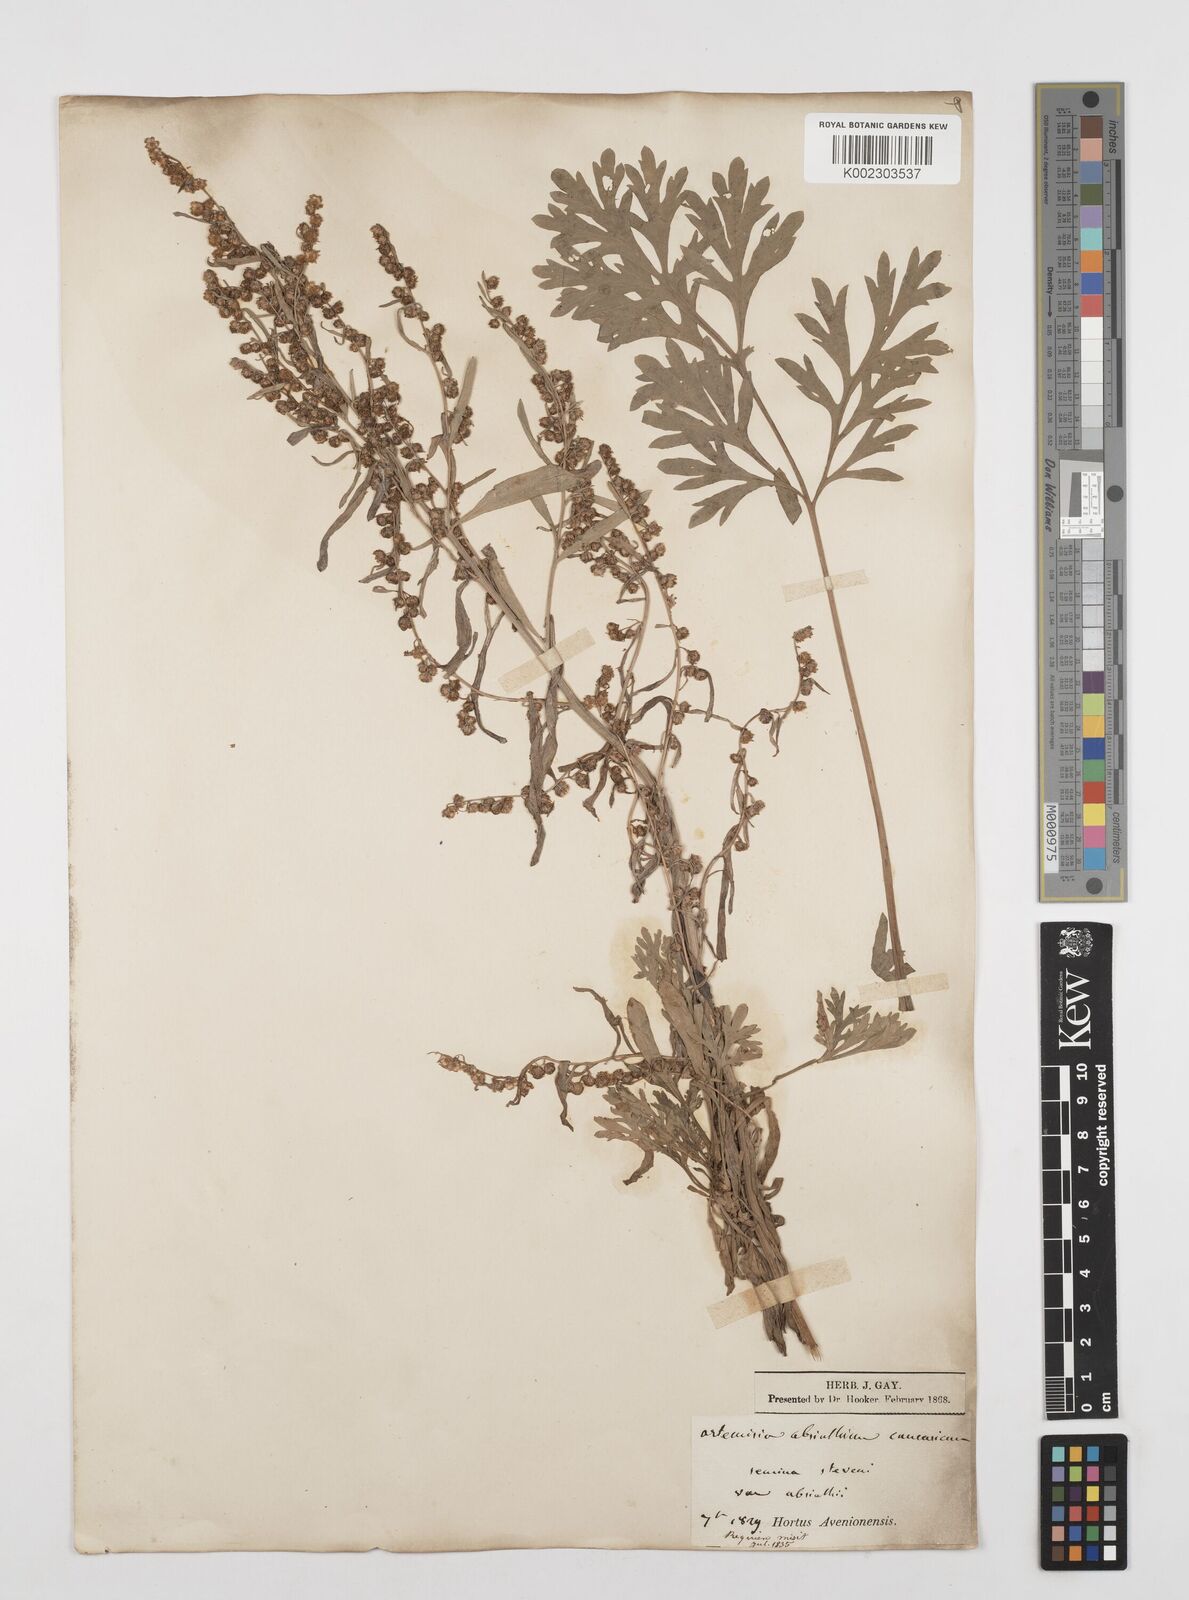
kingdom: Plantae
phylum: Tracheophyta
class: Magnoliopsida
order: Asterales
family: Asteraceae
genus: Artemisia
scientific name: Artemisia absinthium
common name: Wormwood
